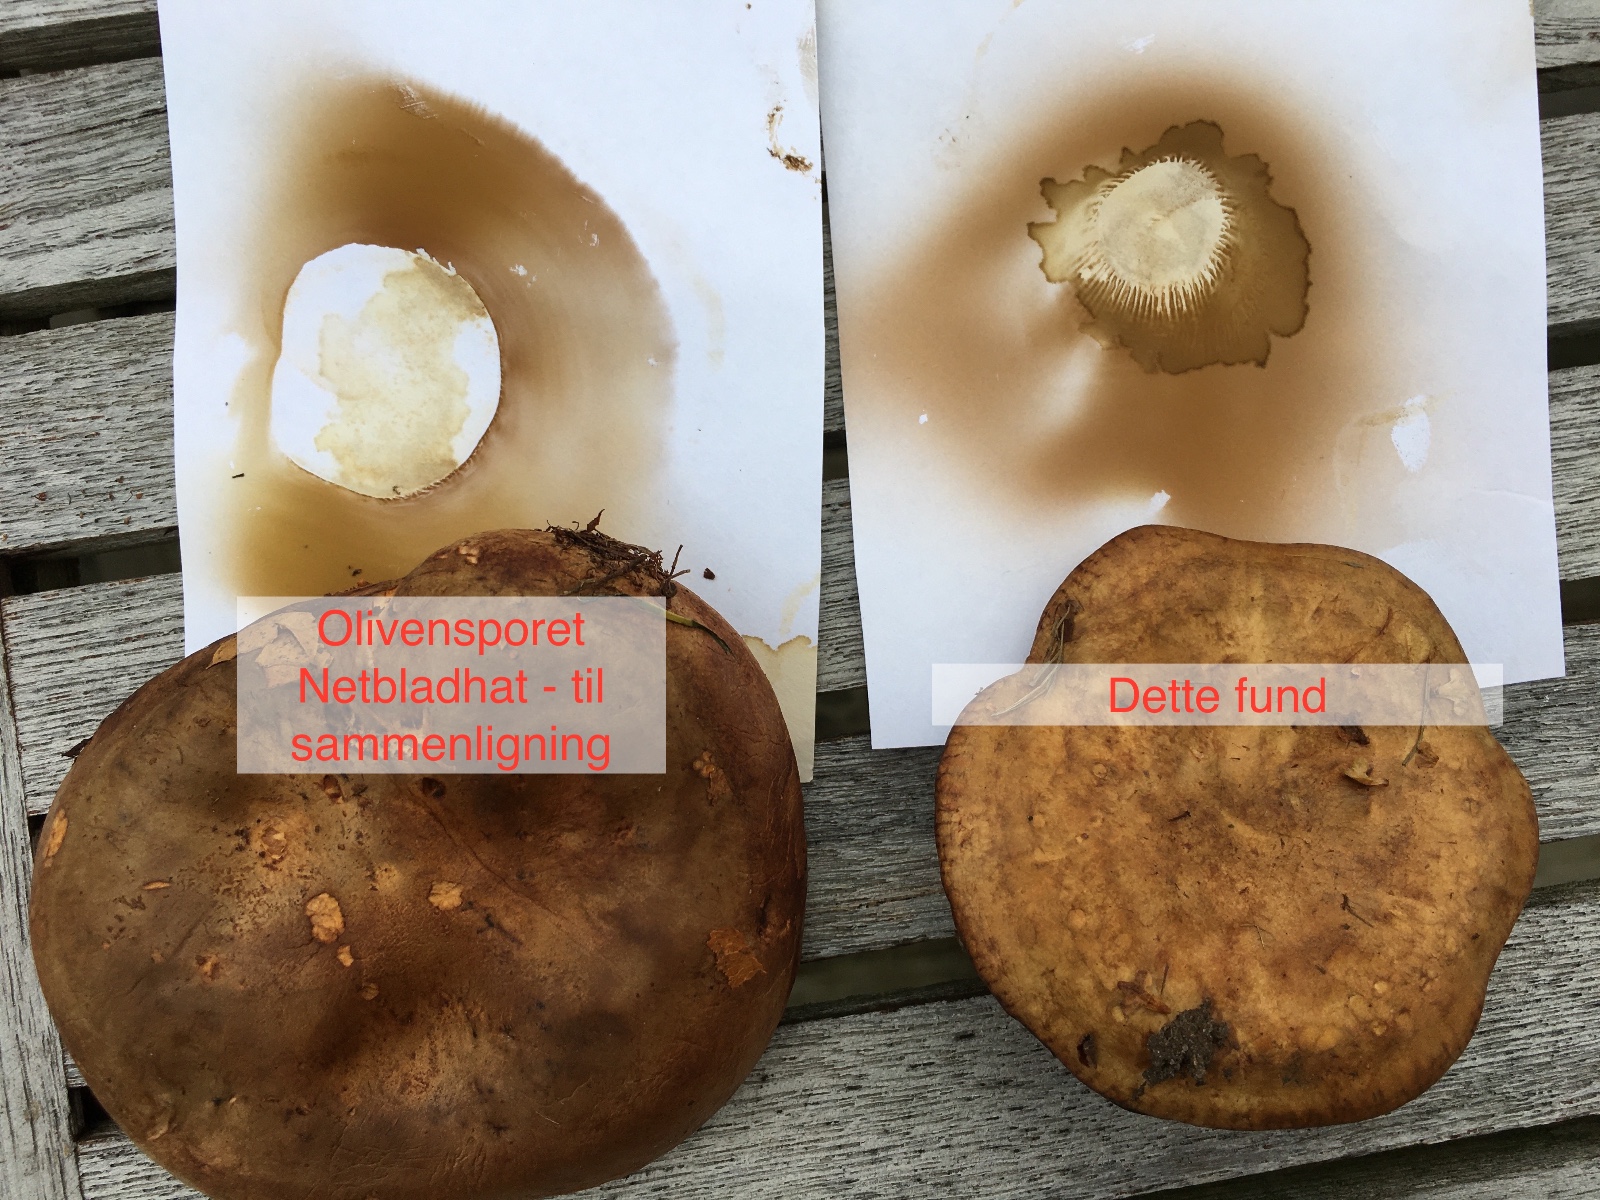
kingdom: Fungi
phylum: Basidiomycota
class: Agaricomycetes
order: Boletales
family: Paxillaceae
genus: Paxillus
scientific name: Paxillus
